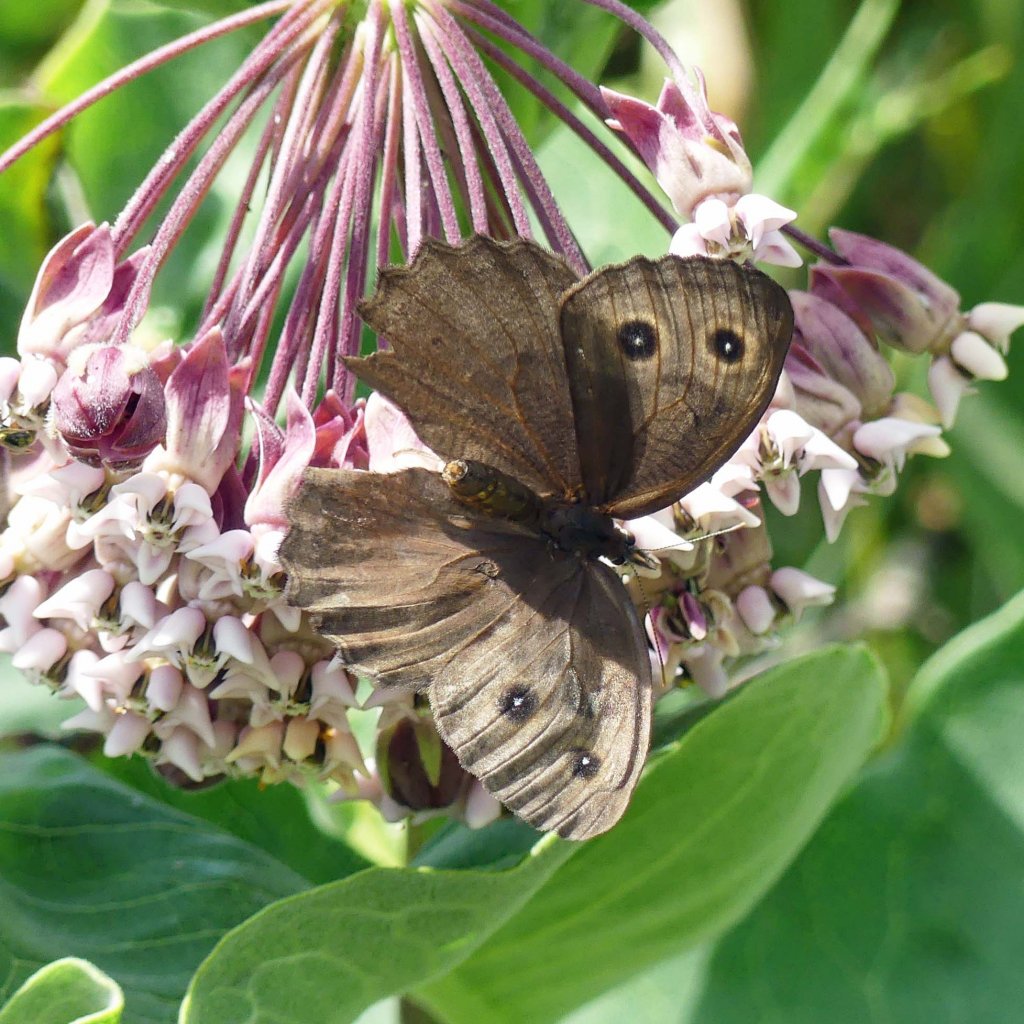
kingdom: Animalia
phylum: Arthropoda
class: Insecta
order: Lepidoptera
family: Nymphalidae
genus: Cercyonis
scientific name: Cercyonis pegala
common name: Common Wood-Nymph
